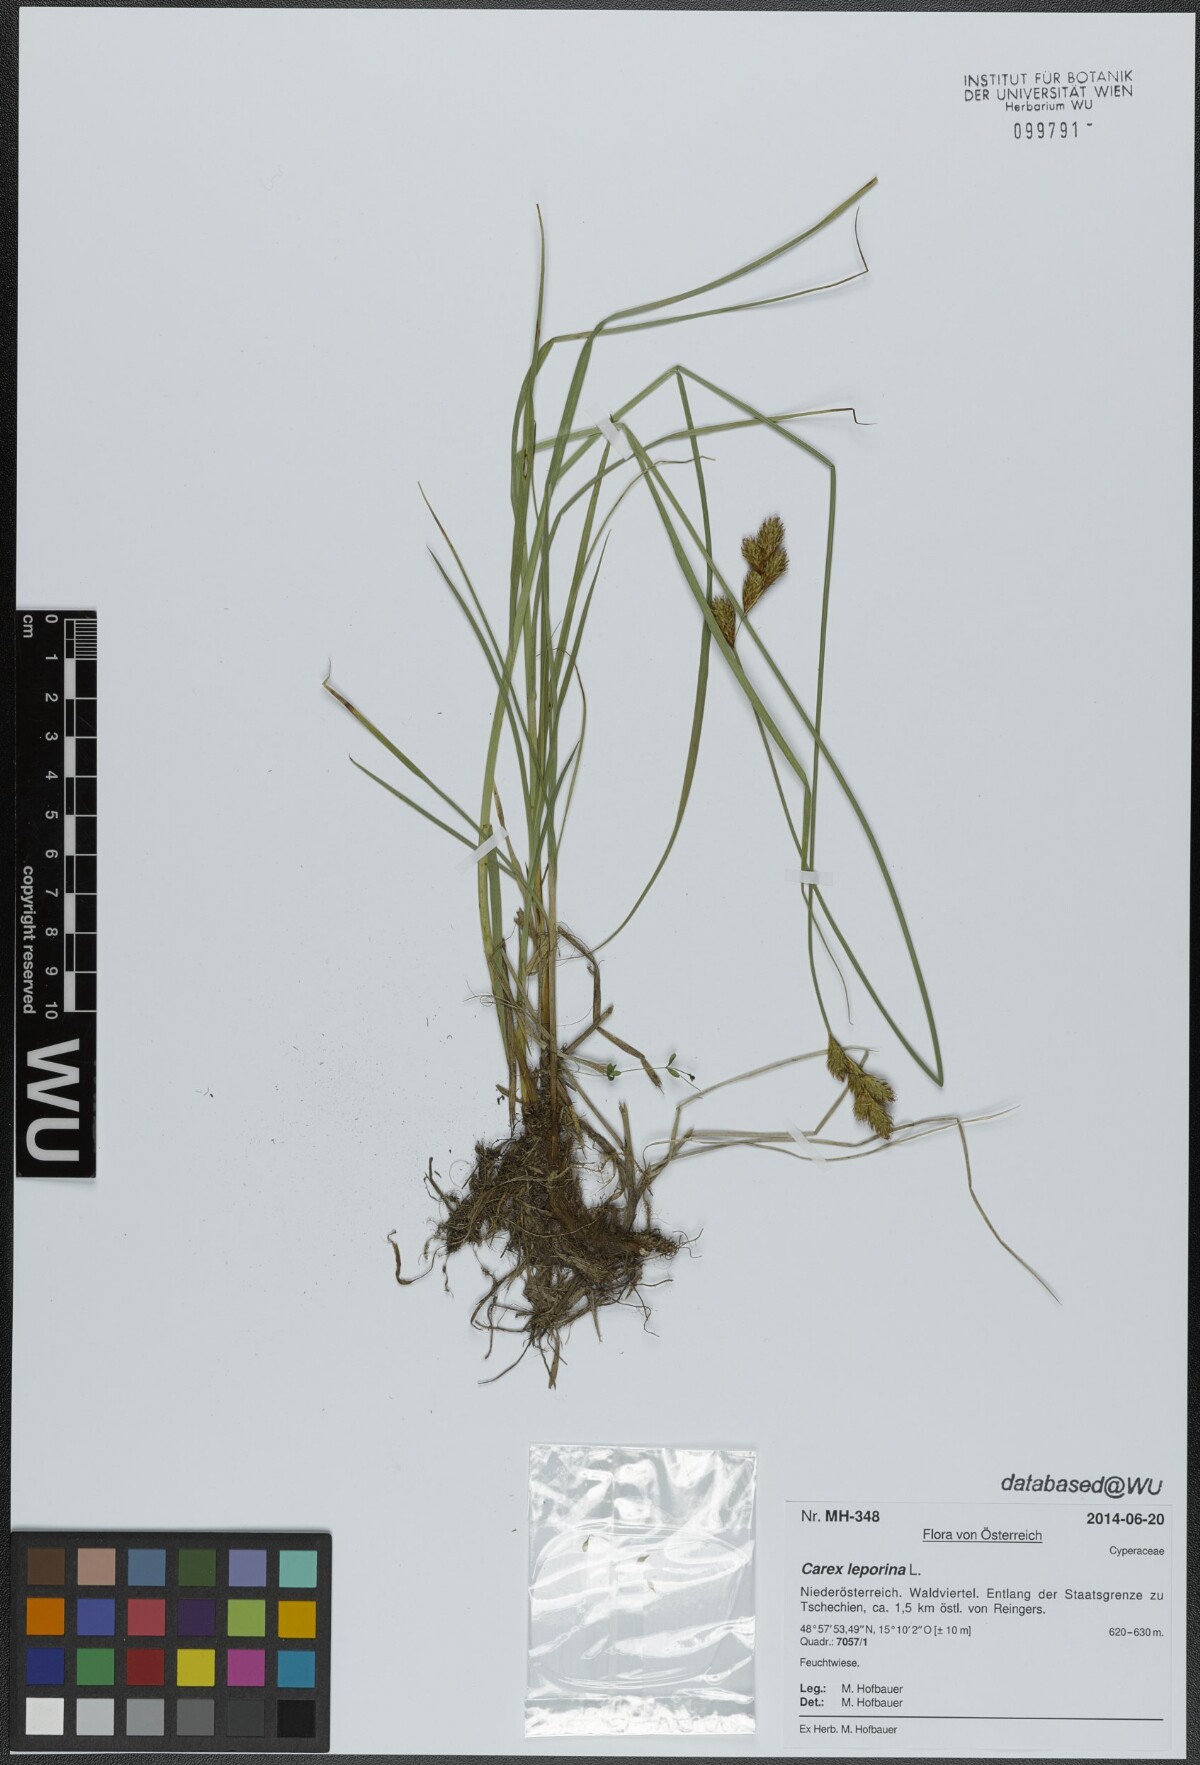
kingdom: Plantae
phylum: Tracheophyta
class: Liliopsida
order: Poales
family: Cyperaceae
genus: Carex
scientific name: Carex leporina
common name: Oval sedge
